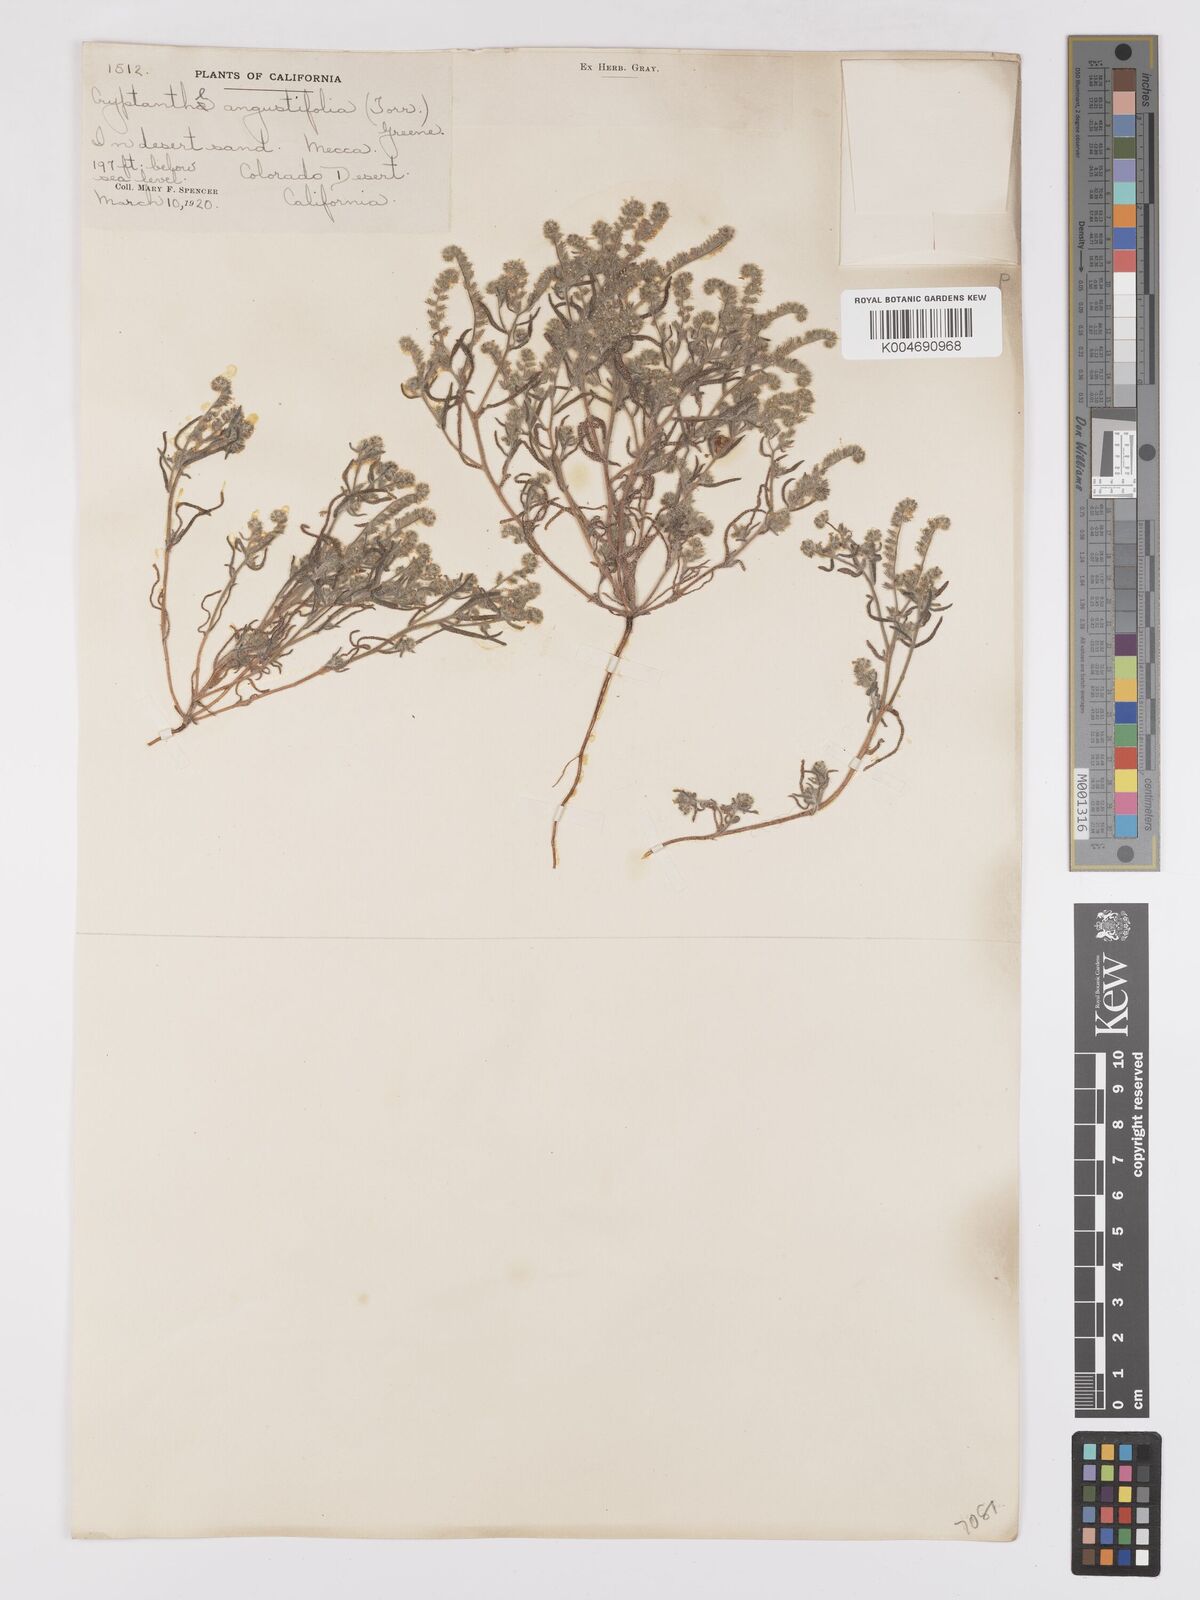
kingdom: Plantae
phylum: Tracheophyta
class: Magnoliopsida
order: Boraginales
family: Boraginaceae
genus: Johnstonella
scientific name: Johnstonella angustifolia
